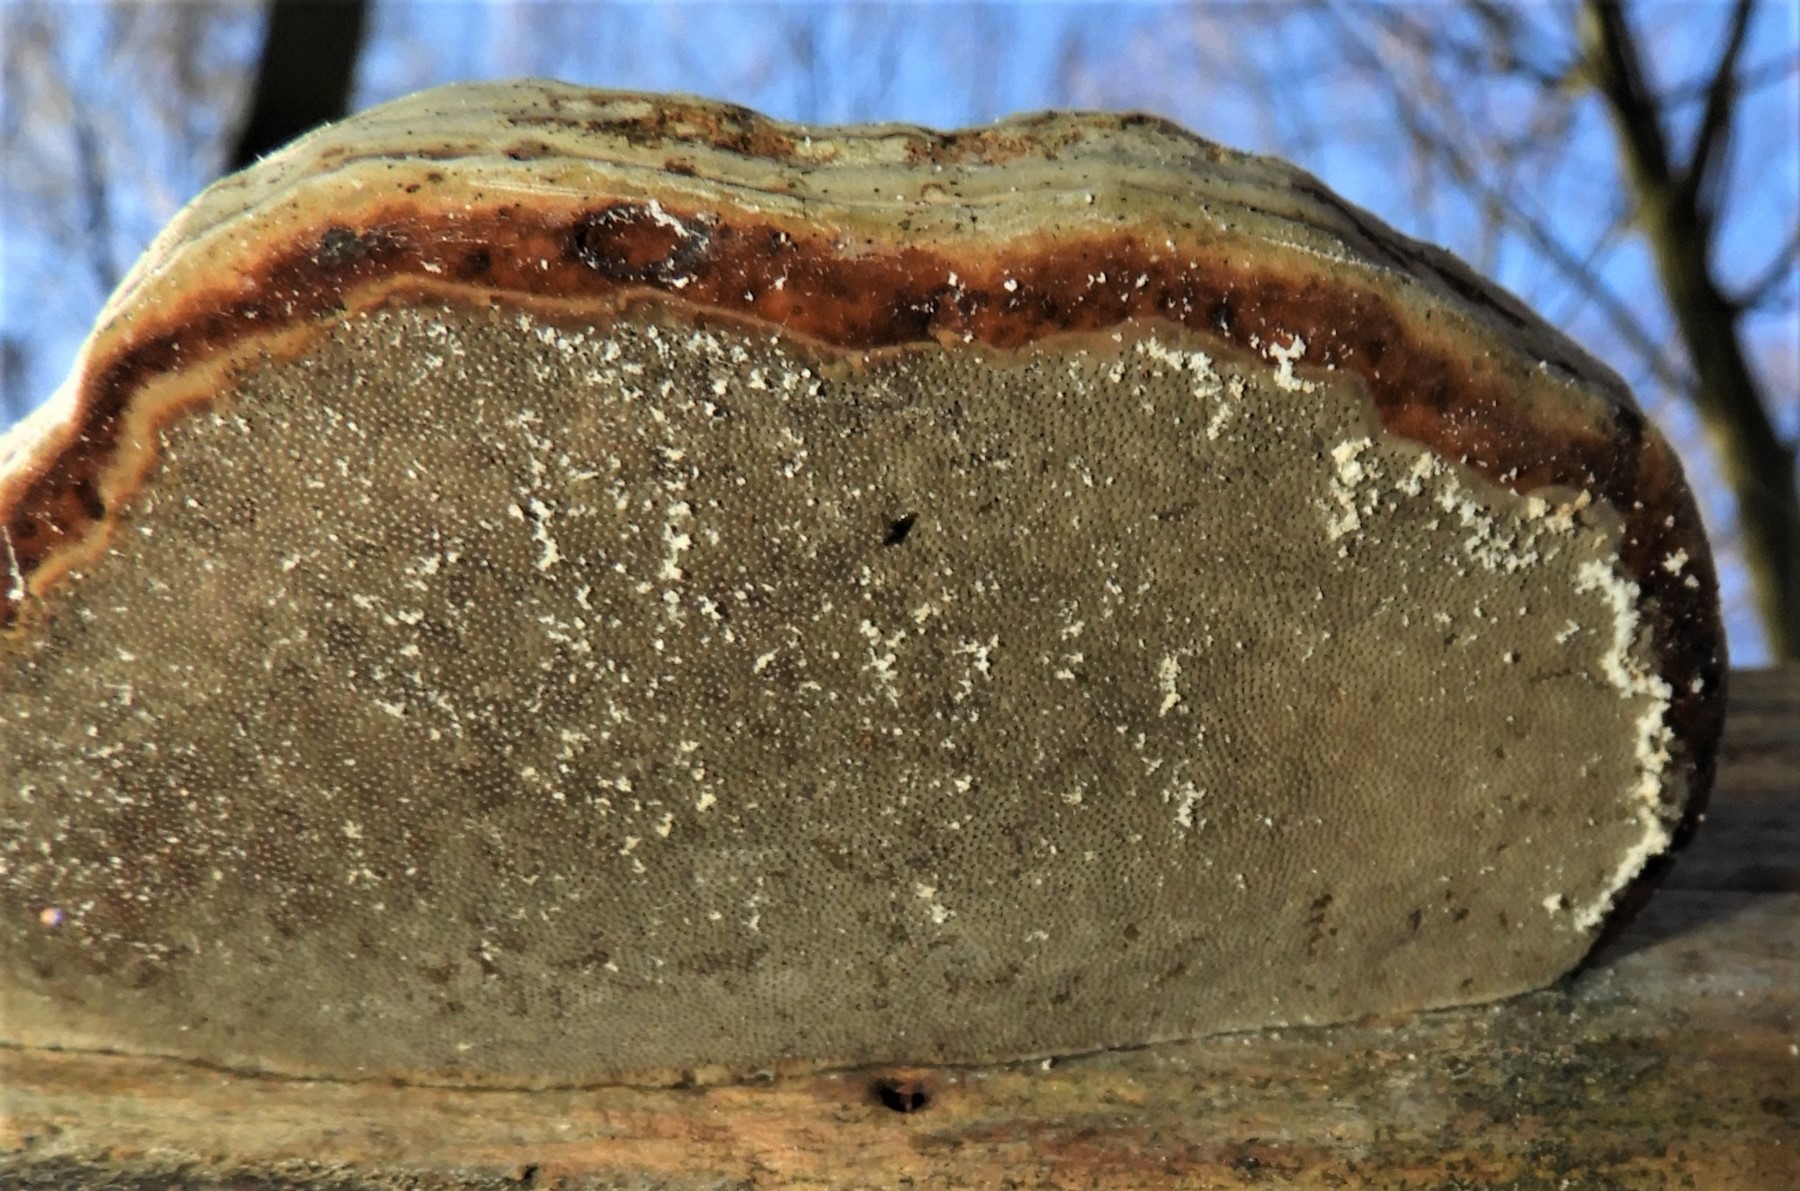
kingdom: Fungi
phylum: Basidiomycota
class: Agaricomycetes
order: Polyporales
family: Polyporaceae
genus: Fomes
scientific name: Fomes fomentarius
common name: tøndersvamp
